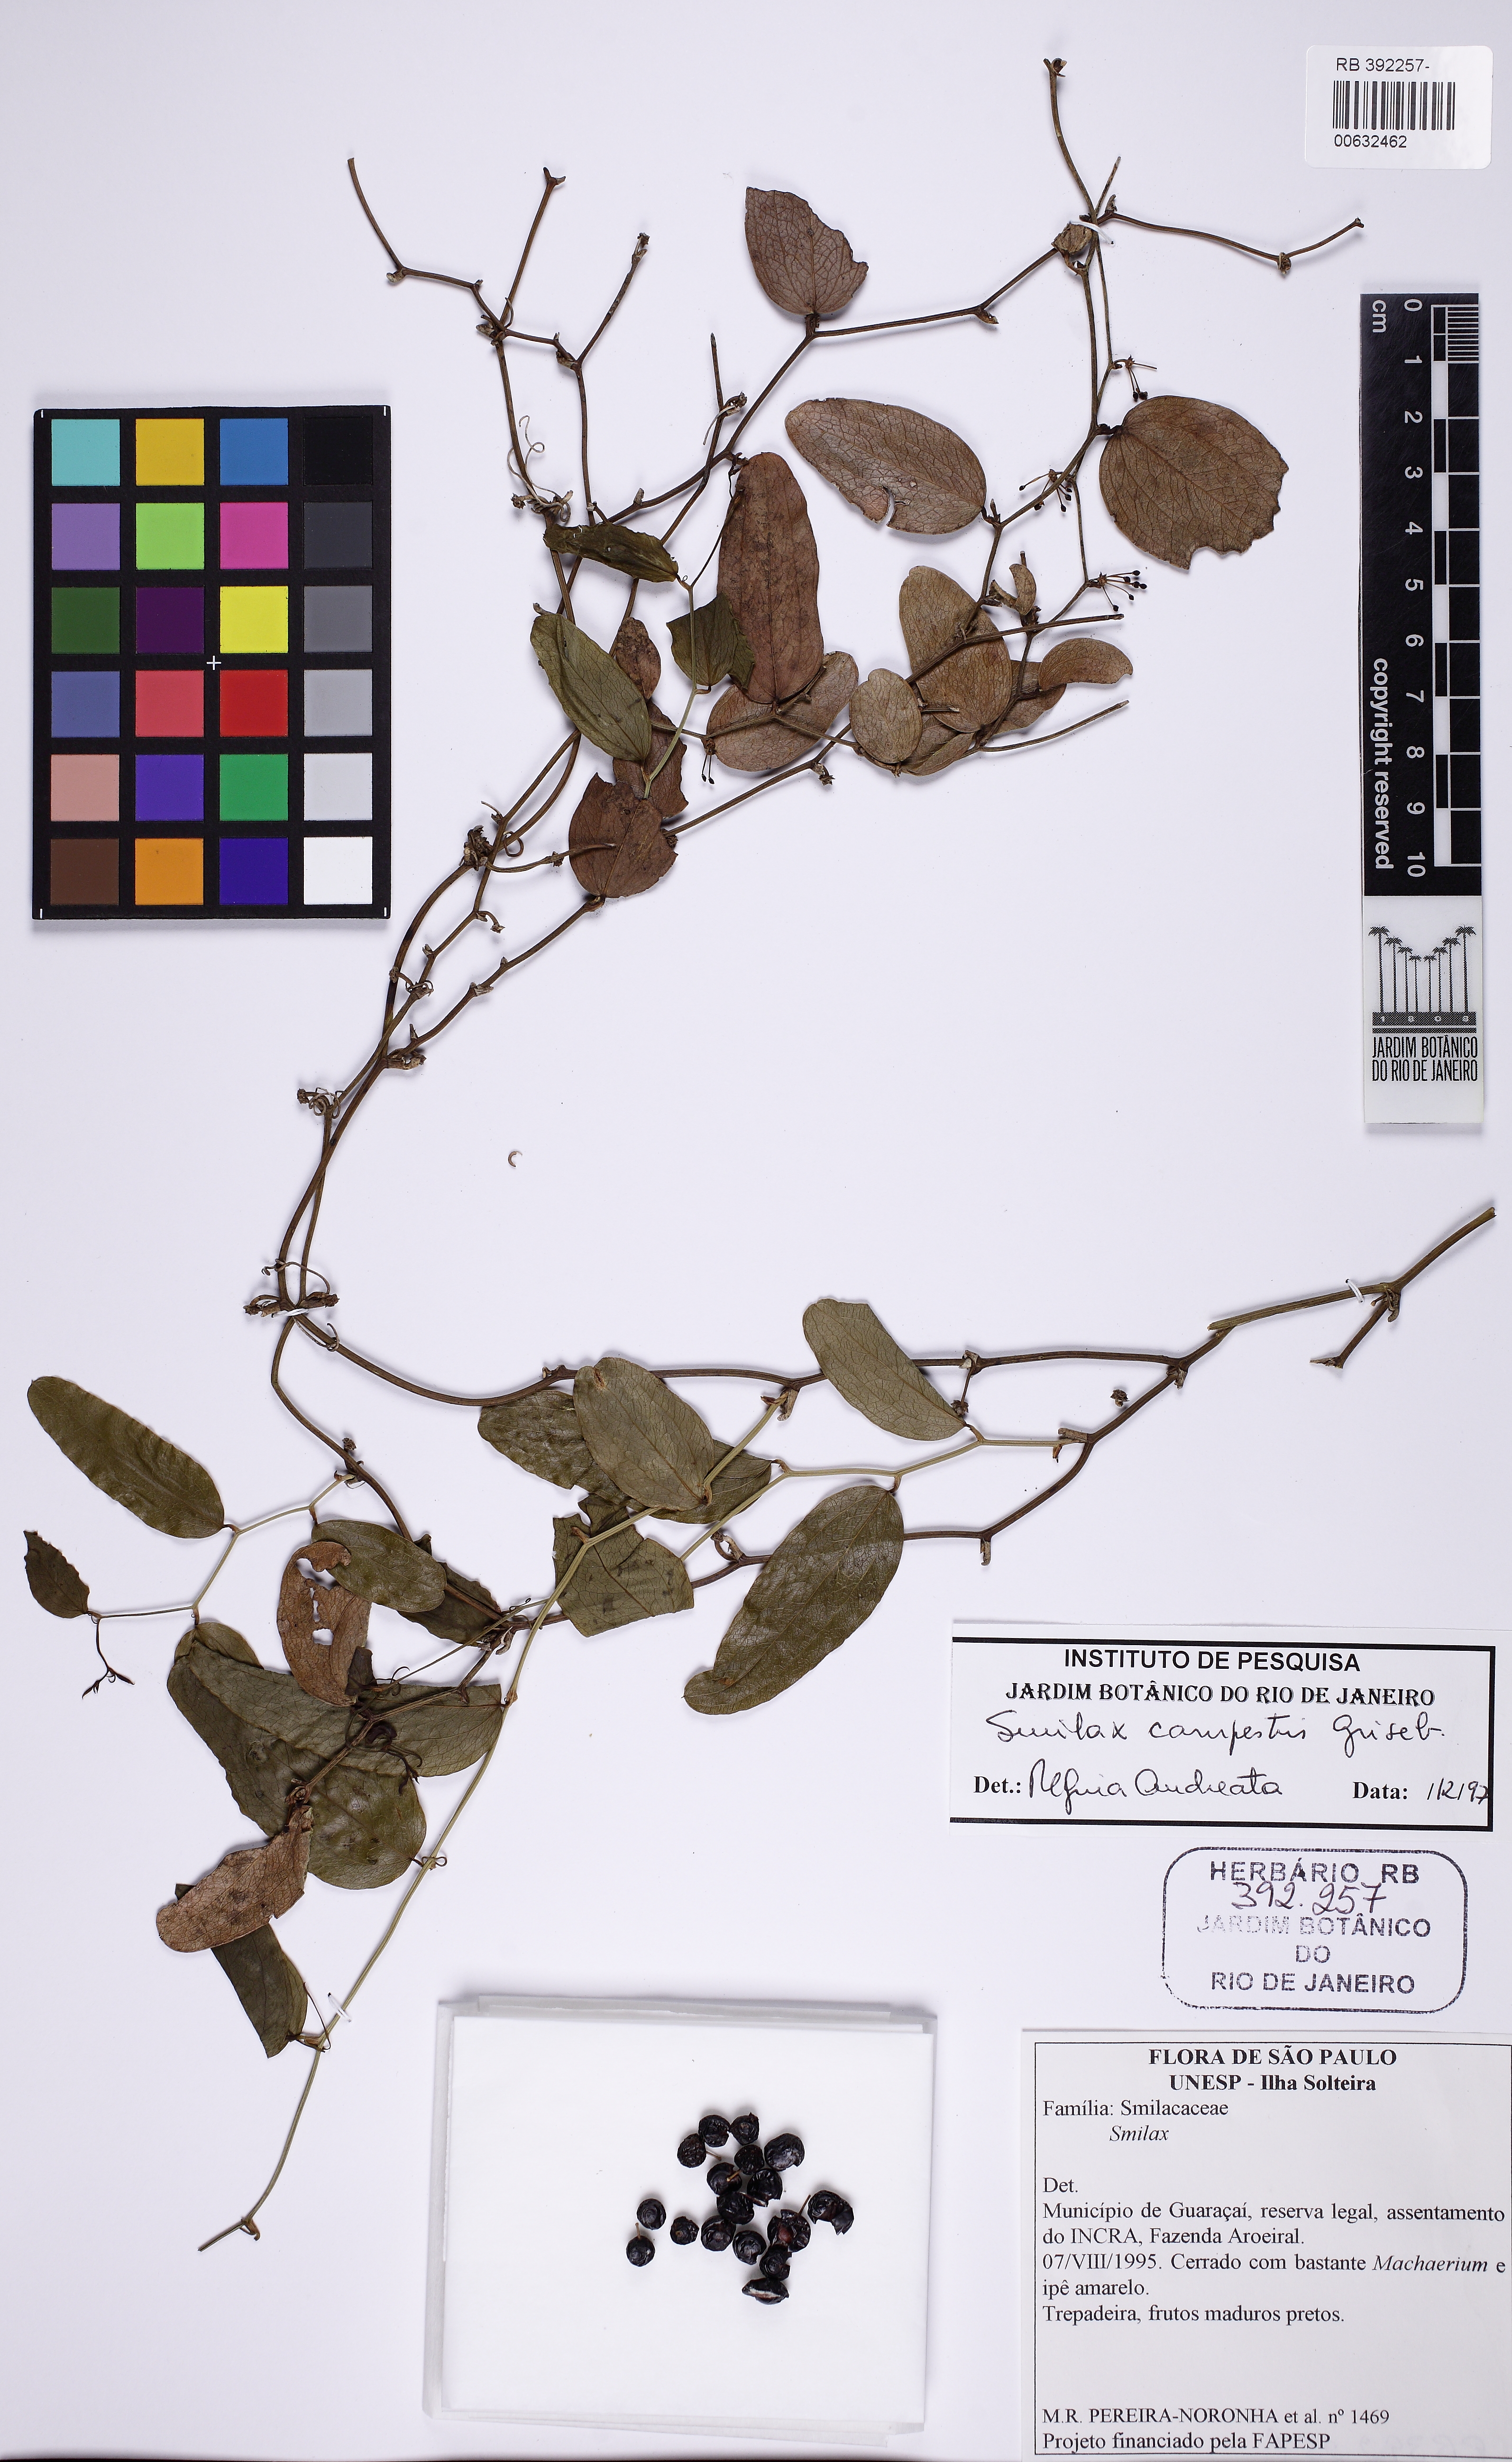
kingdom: Plantae
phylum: Tracheophyta
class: Liliopsida
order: Liliales
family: Smilacaceae
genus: Smilax
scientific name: Smilax campestris
